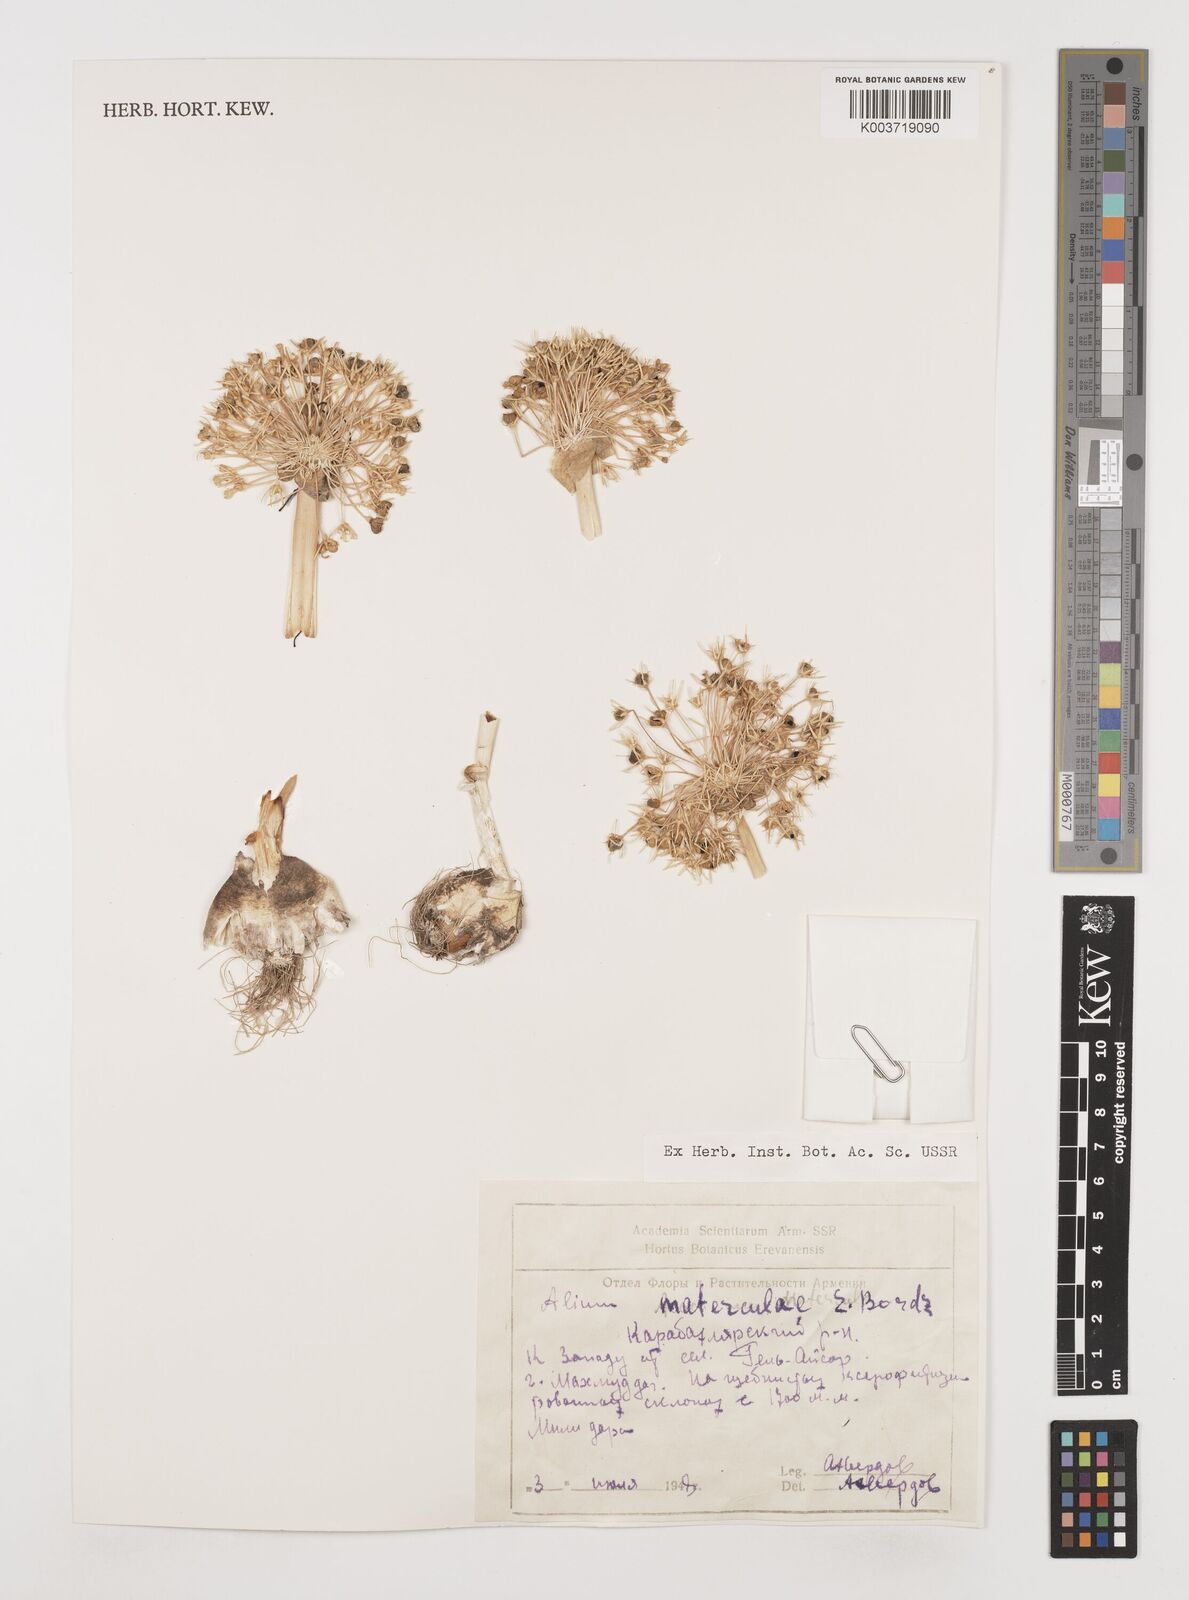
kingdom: Plantae
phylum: Tracheophyta
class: Liliopsida
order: Asparagales
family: Amaryllidaceae
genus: Allium
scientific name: Allium materculae
